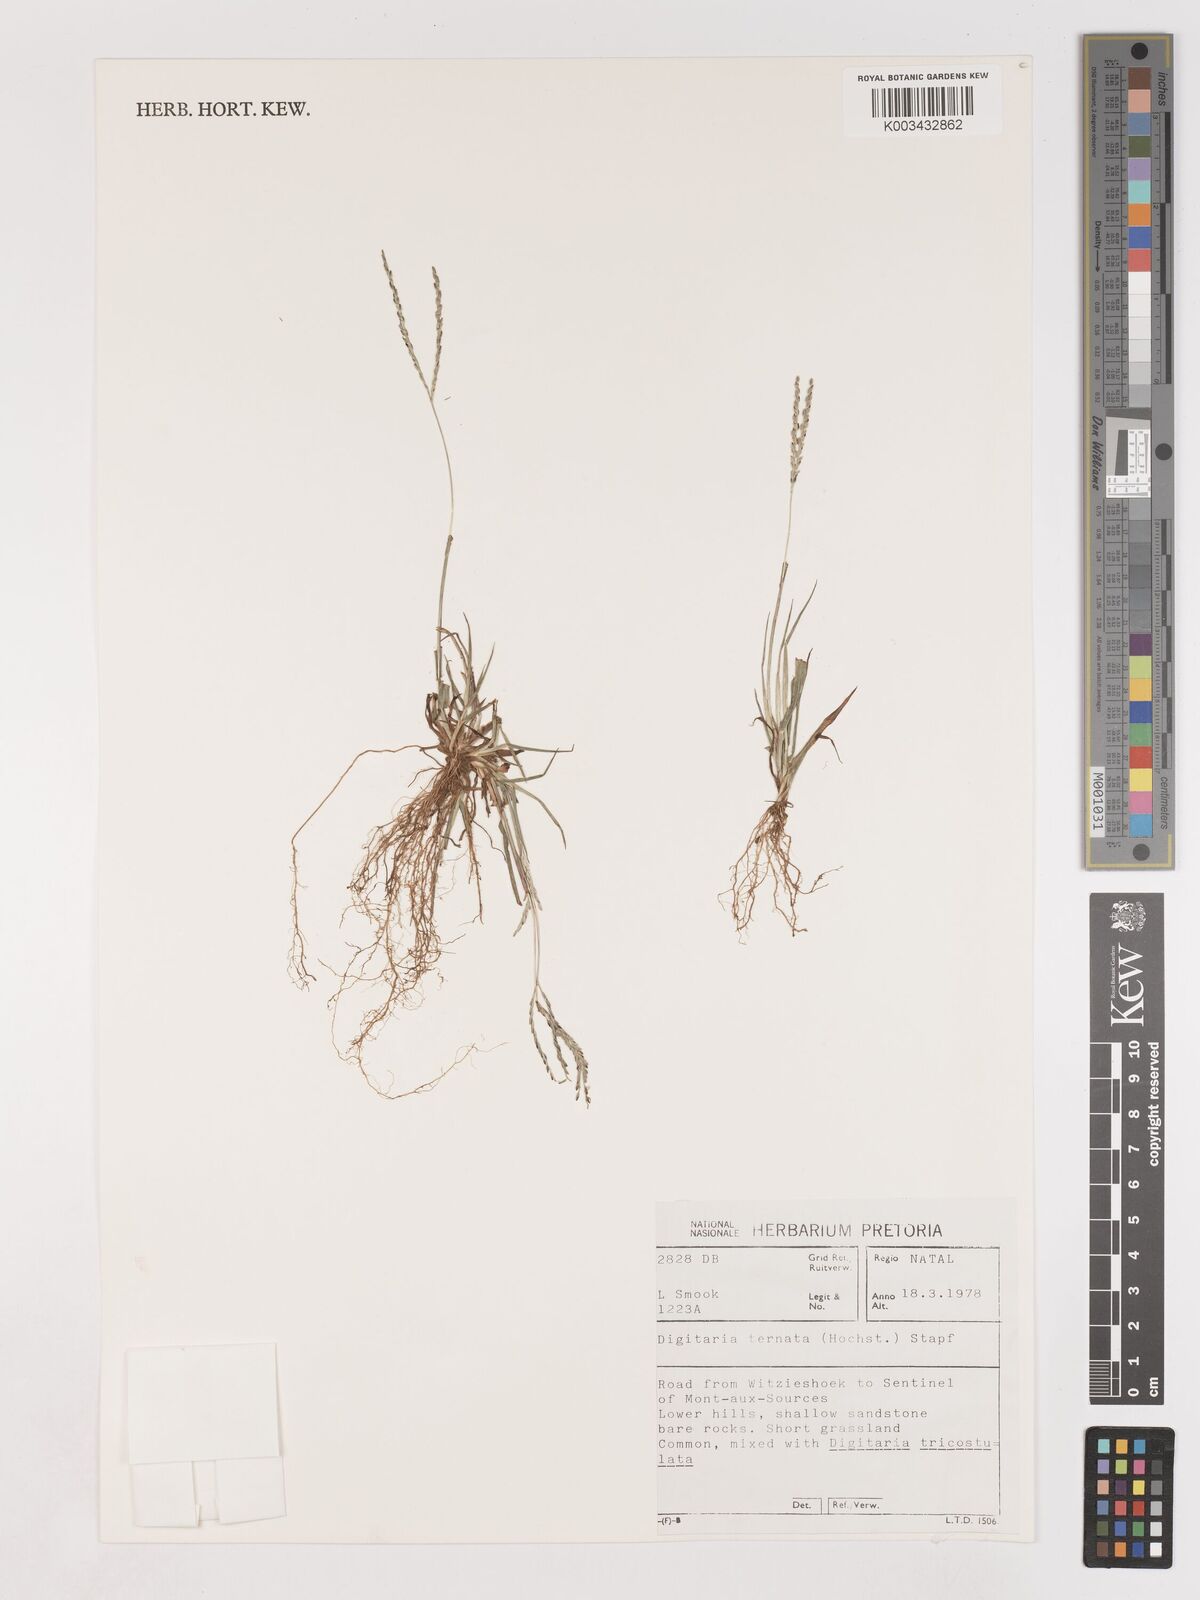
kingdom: Plantae
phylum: Tracheophyta
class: Liliopsida
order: Poales
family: Poaceae
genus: Digitaria
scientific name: Digitaria ternata
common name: Blackseed crabgrass
